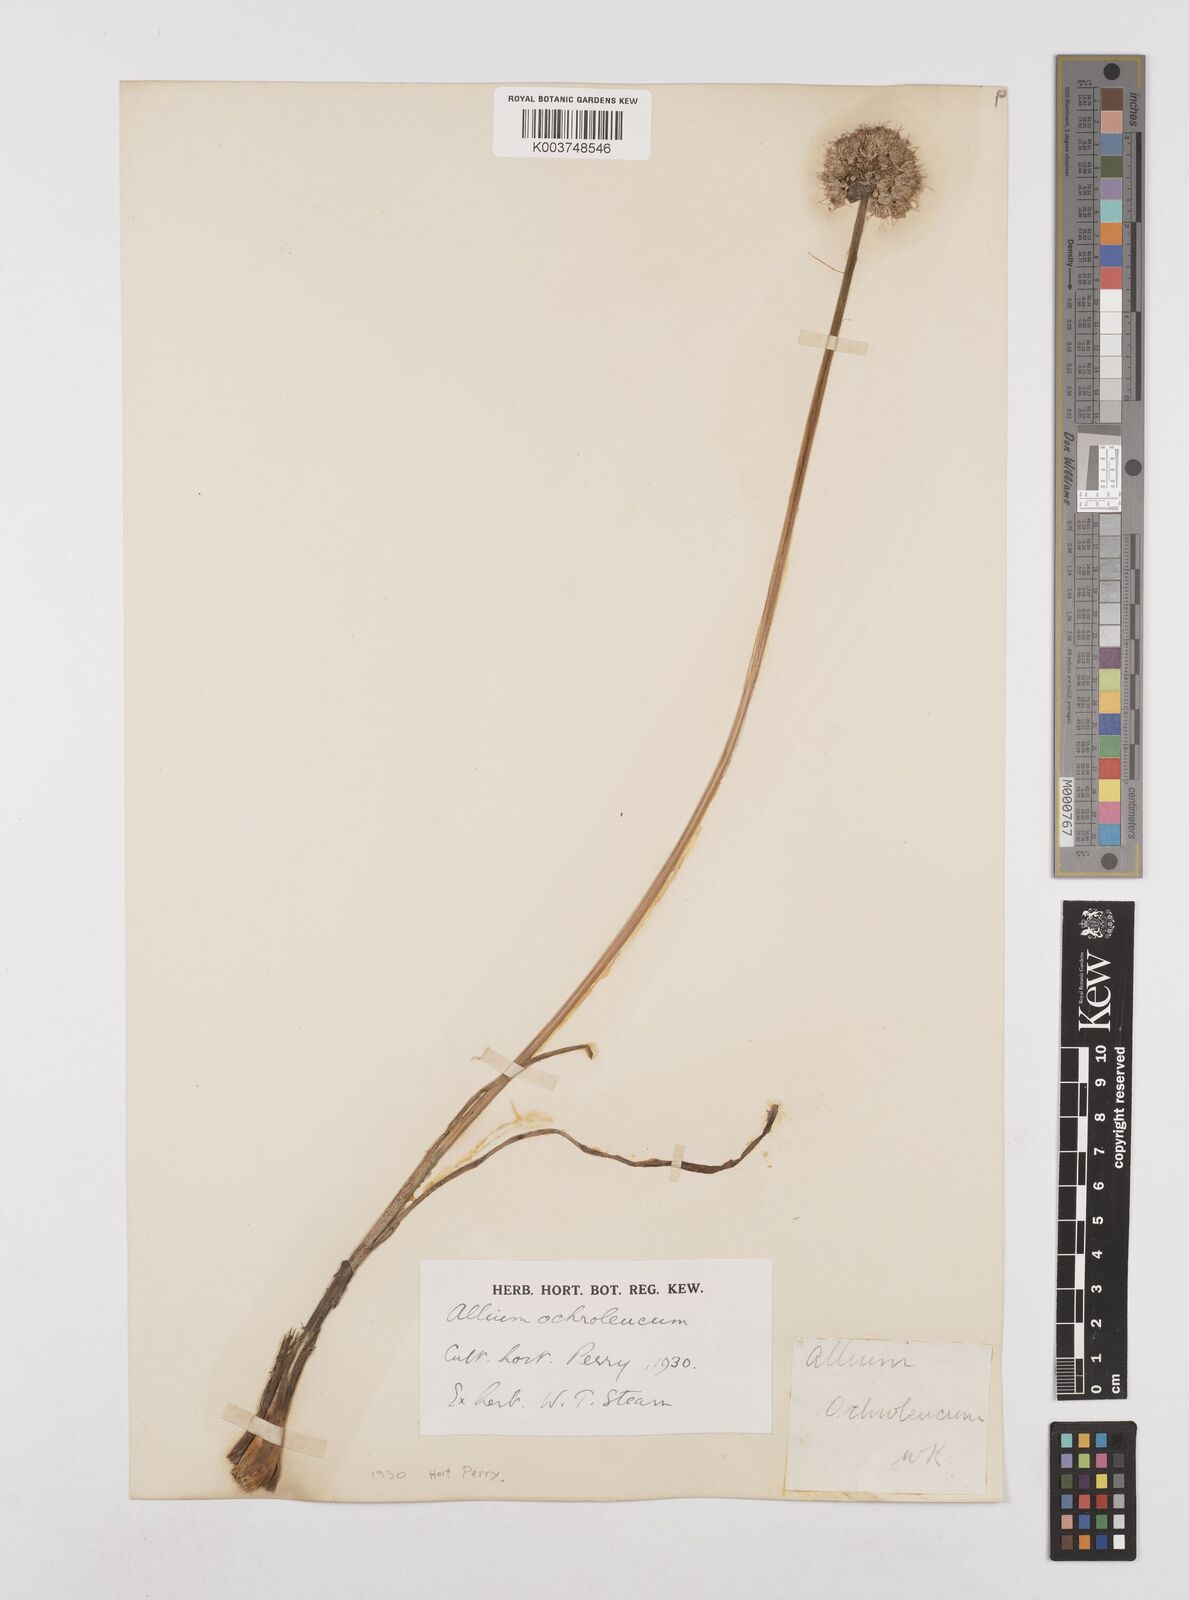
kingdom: Plantae
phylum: Tracheophyta
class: Liliopsida
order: Asparagales
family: Amaryllidaceae
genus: Allium
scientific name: Allium ericetorum
